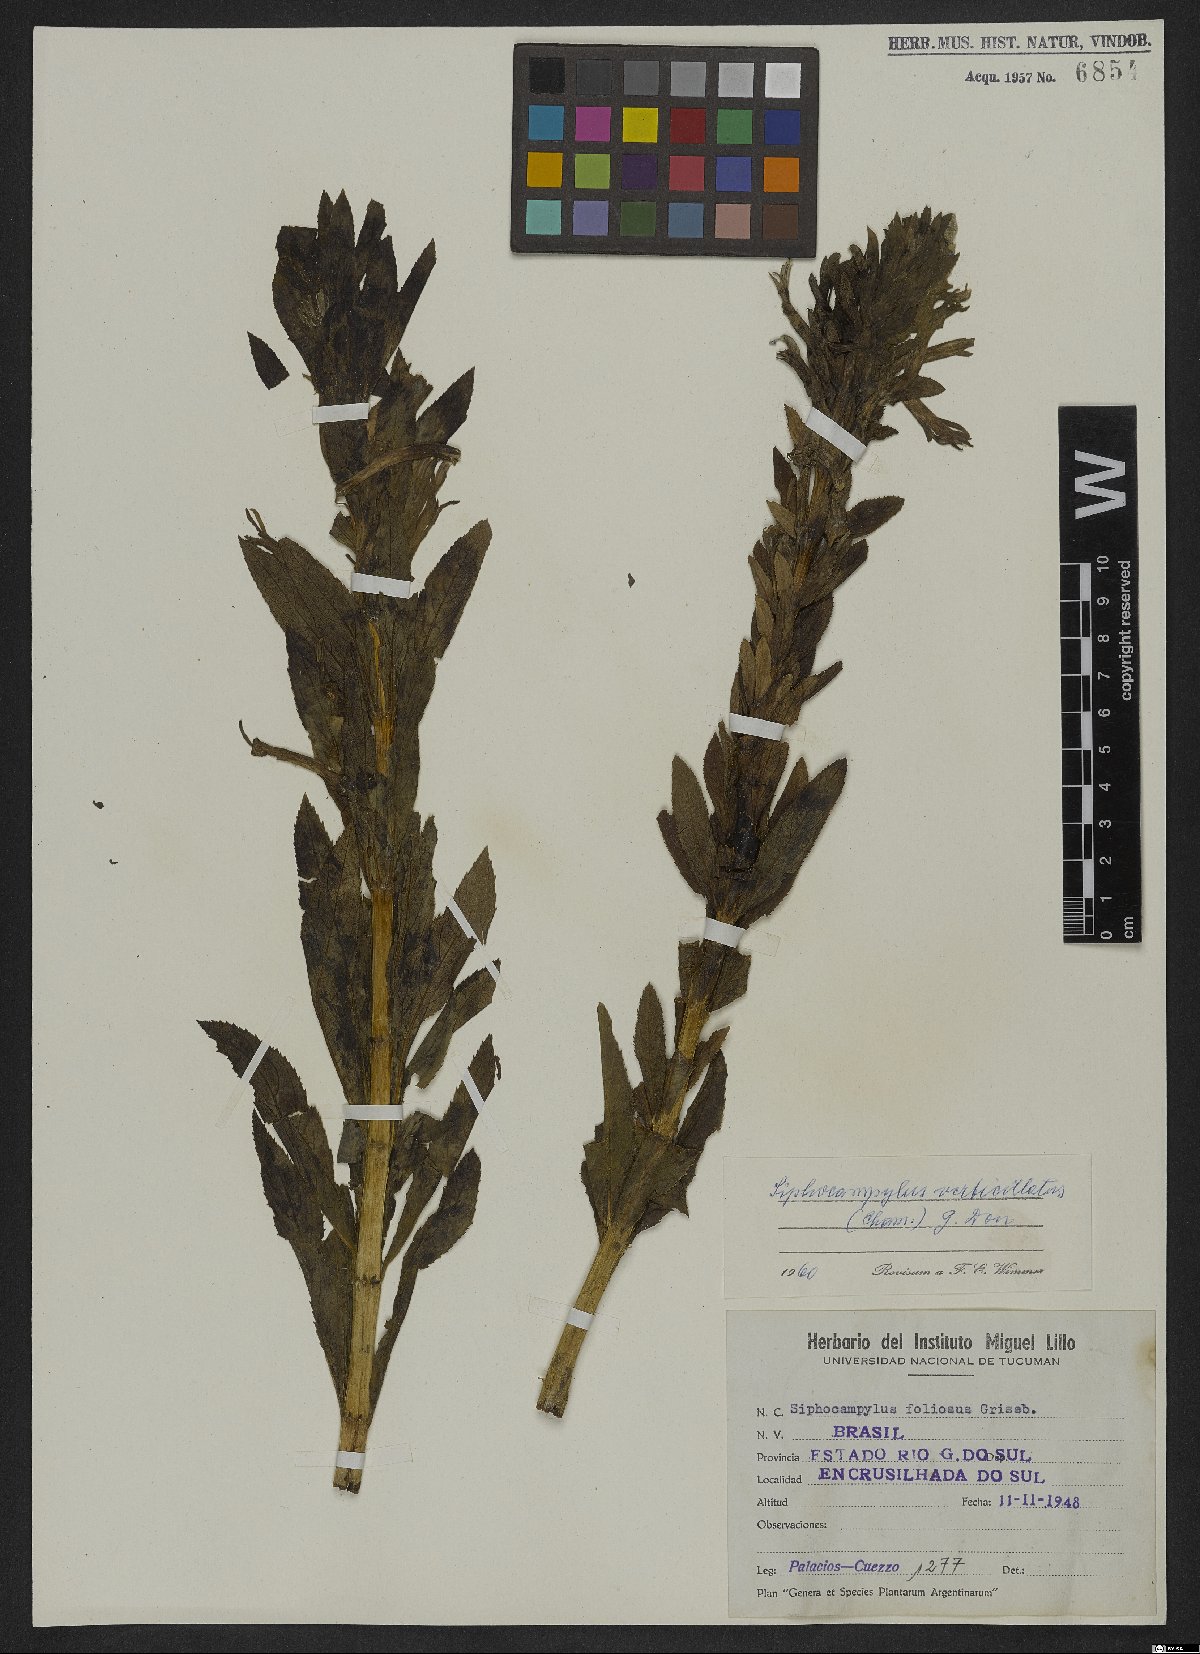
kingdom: Plantae
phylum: Tracheophyta
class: Magnoliopsida
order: Asterales
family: Campanulaceae
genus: Siphocampylus
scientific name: Siphocampylus verticillatus
